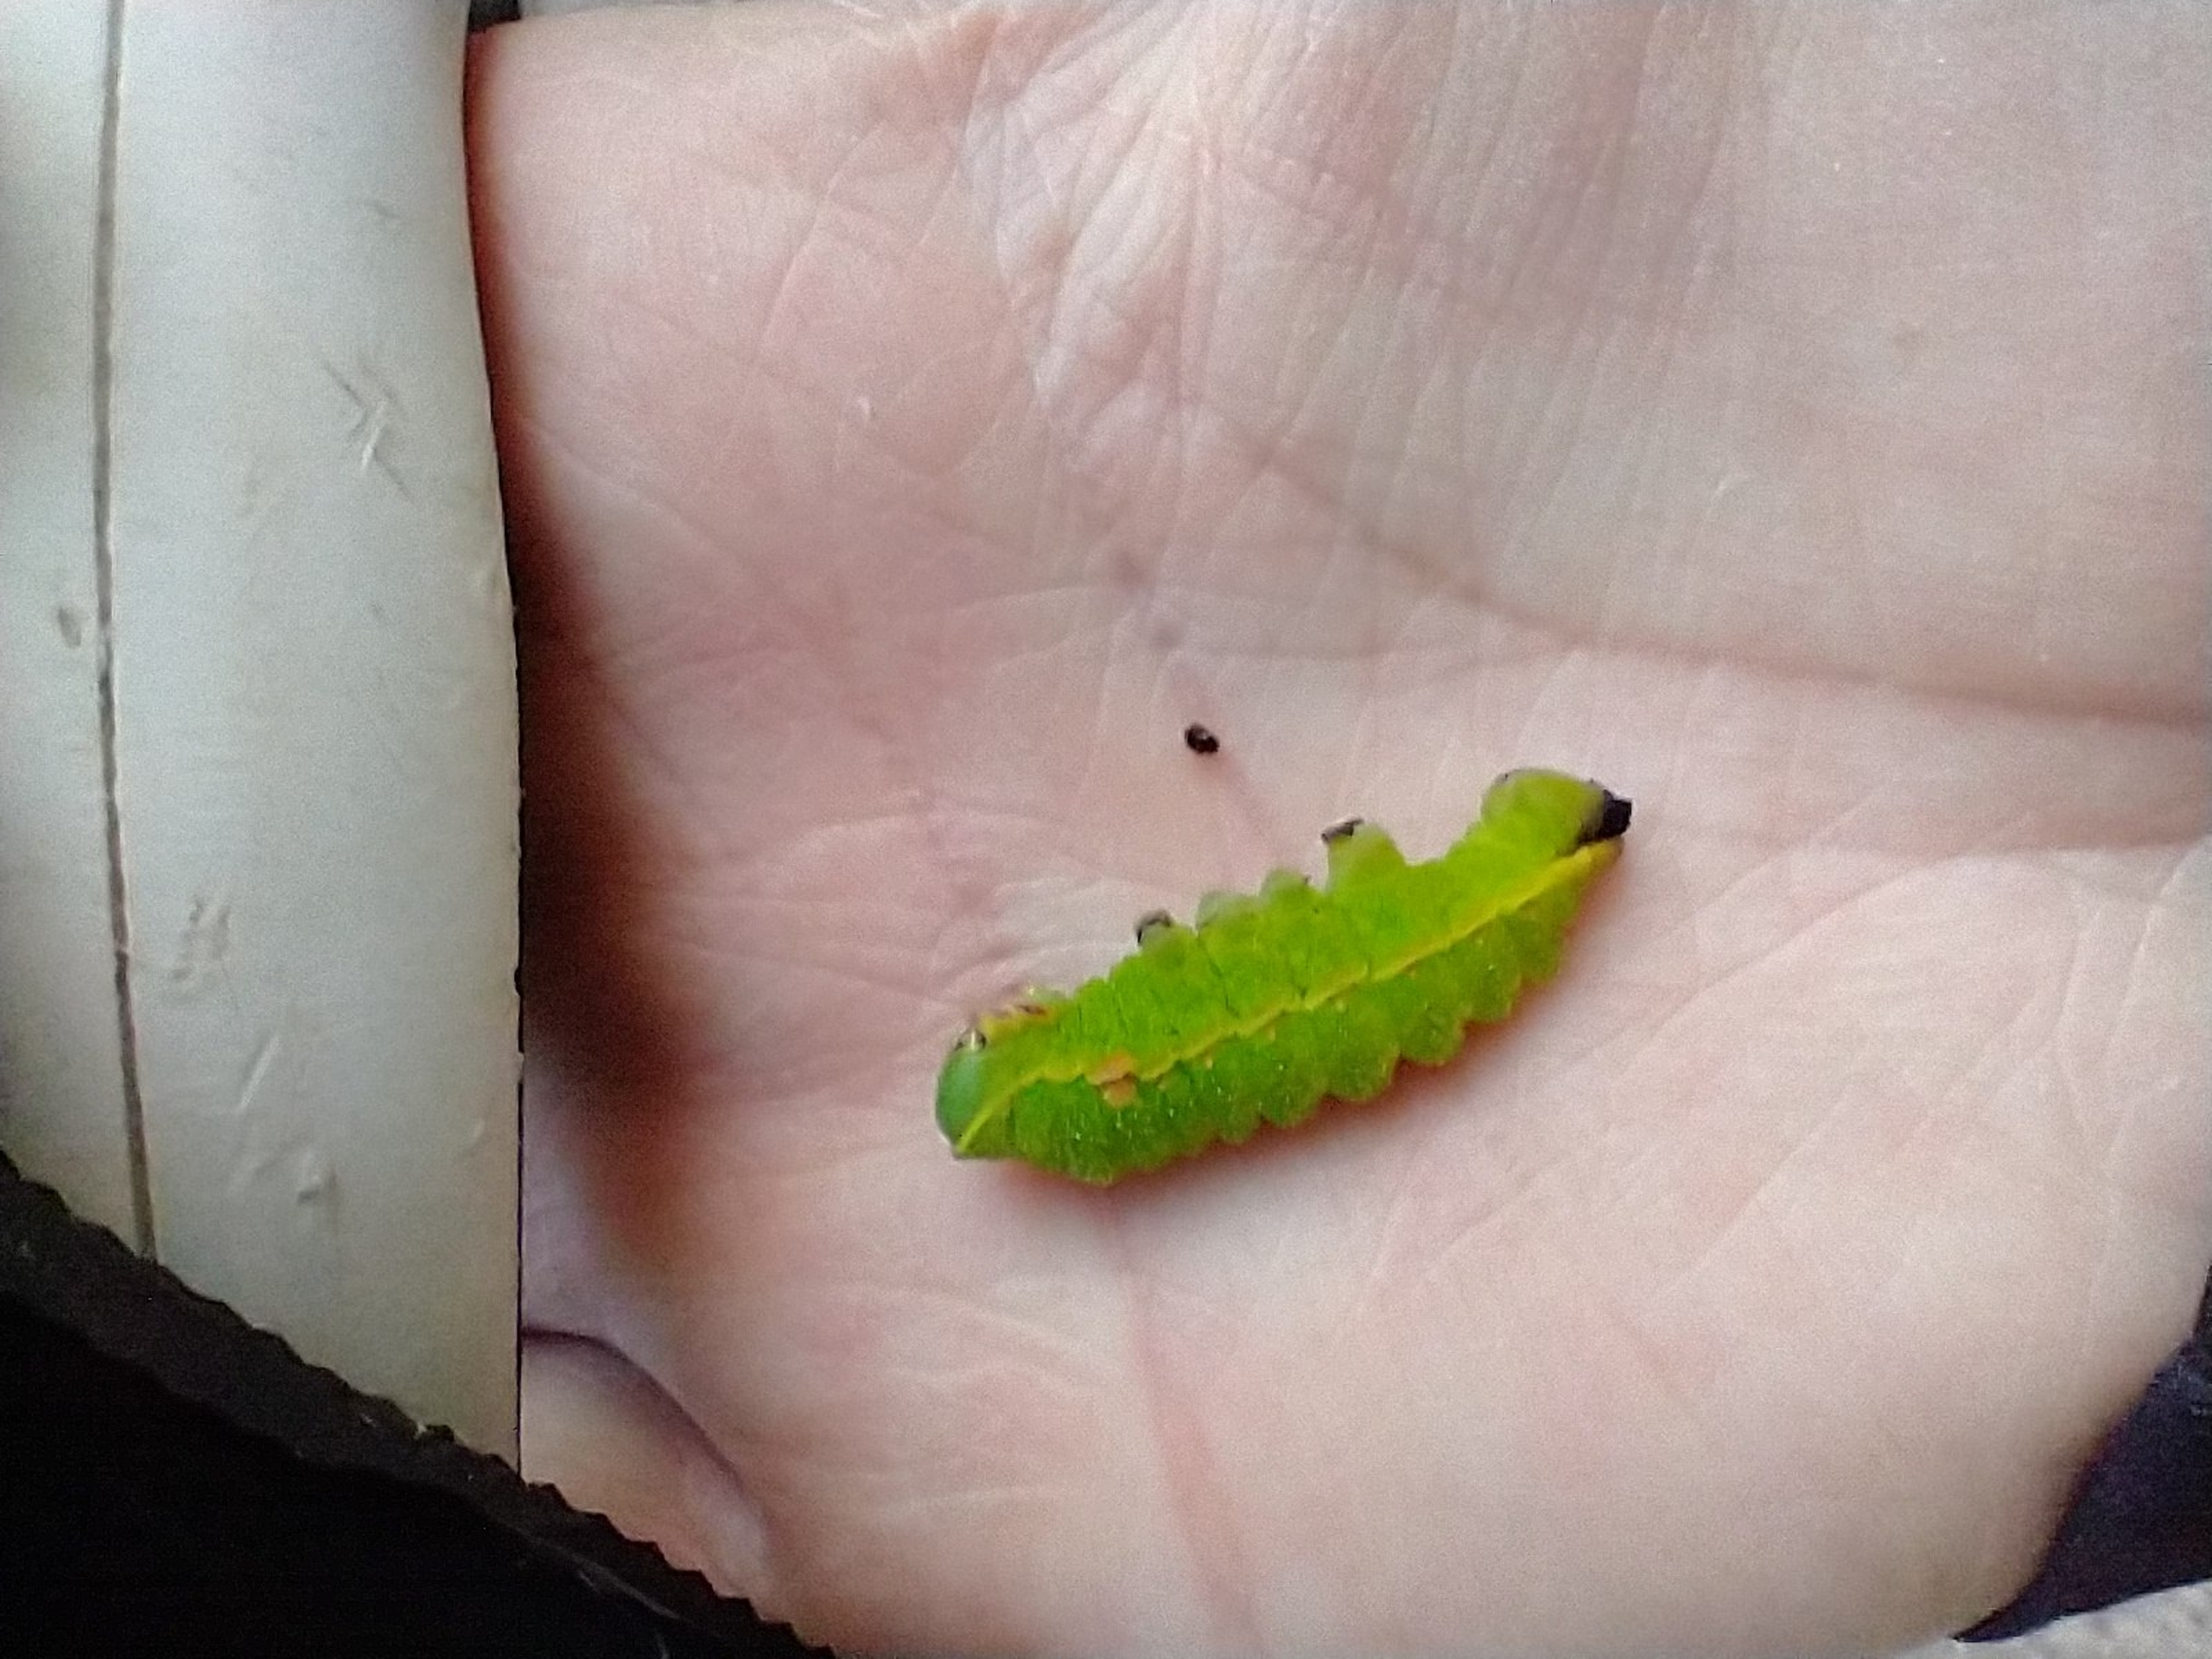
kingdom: Animalia
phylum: Arthropoda
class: Insecta
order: Lepidoptera
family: Saturniidae
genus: Aglia
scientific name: Aglia tau
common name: Sømplet
